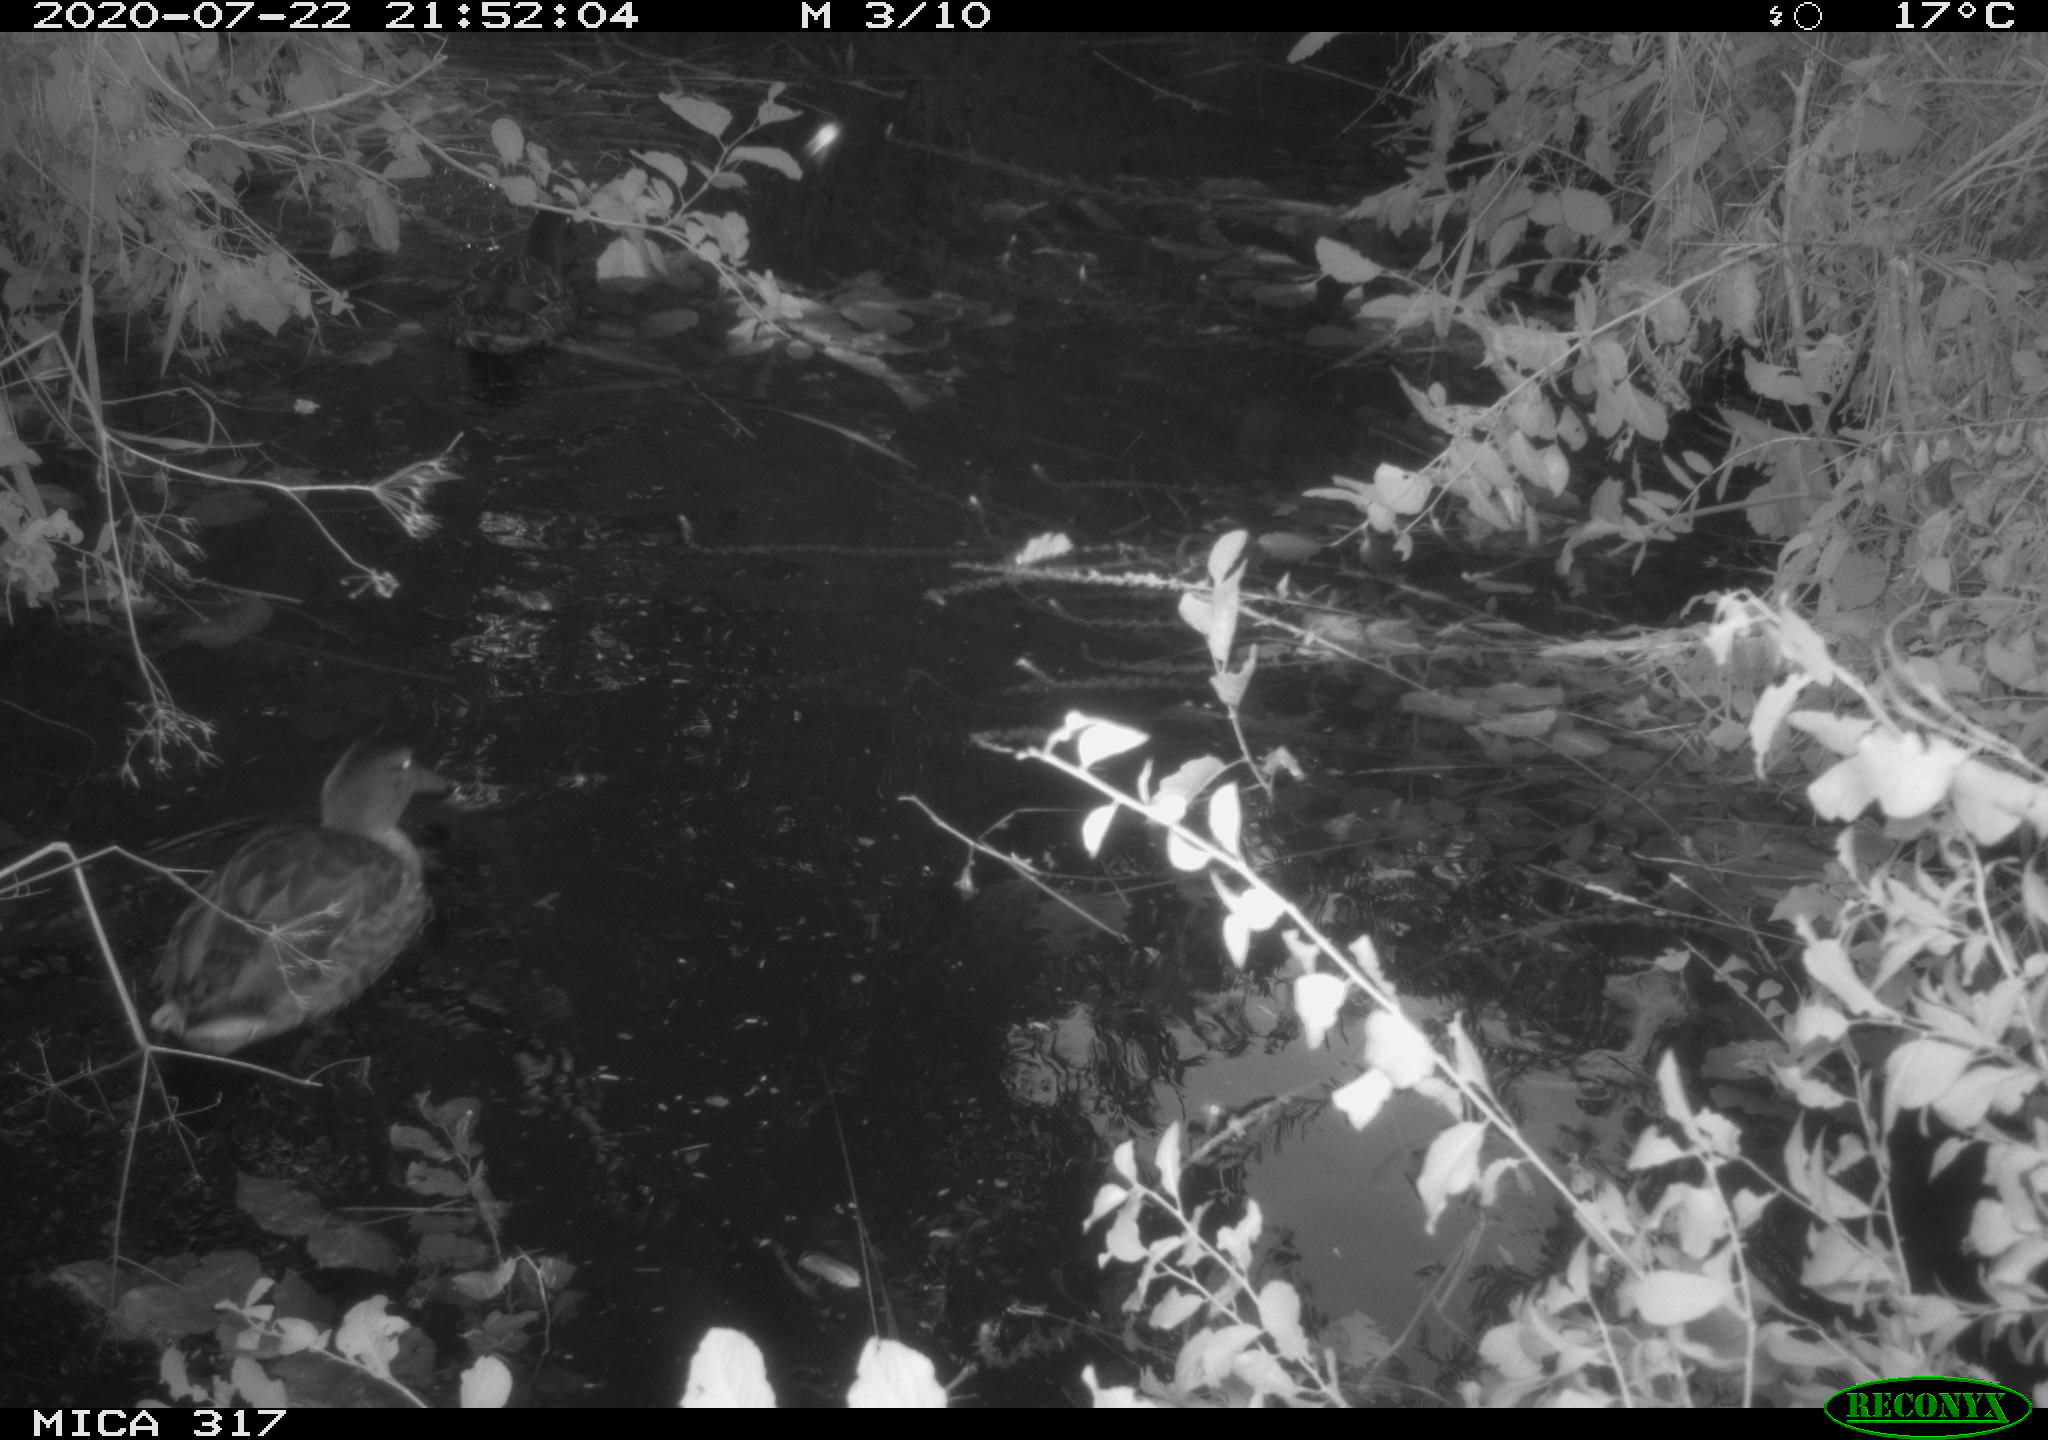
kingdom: Animalia
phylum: Chordata
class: Aves
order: Anseriformes
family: Anatidae
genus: Anas
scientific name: Anas platyrhynchos
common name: Mallard
